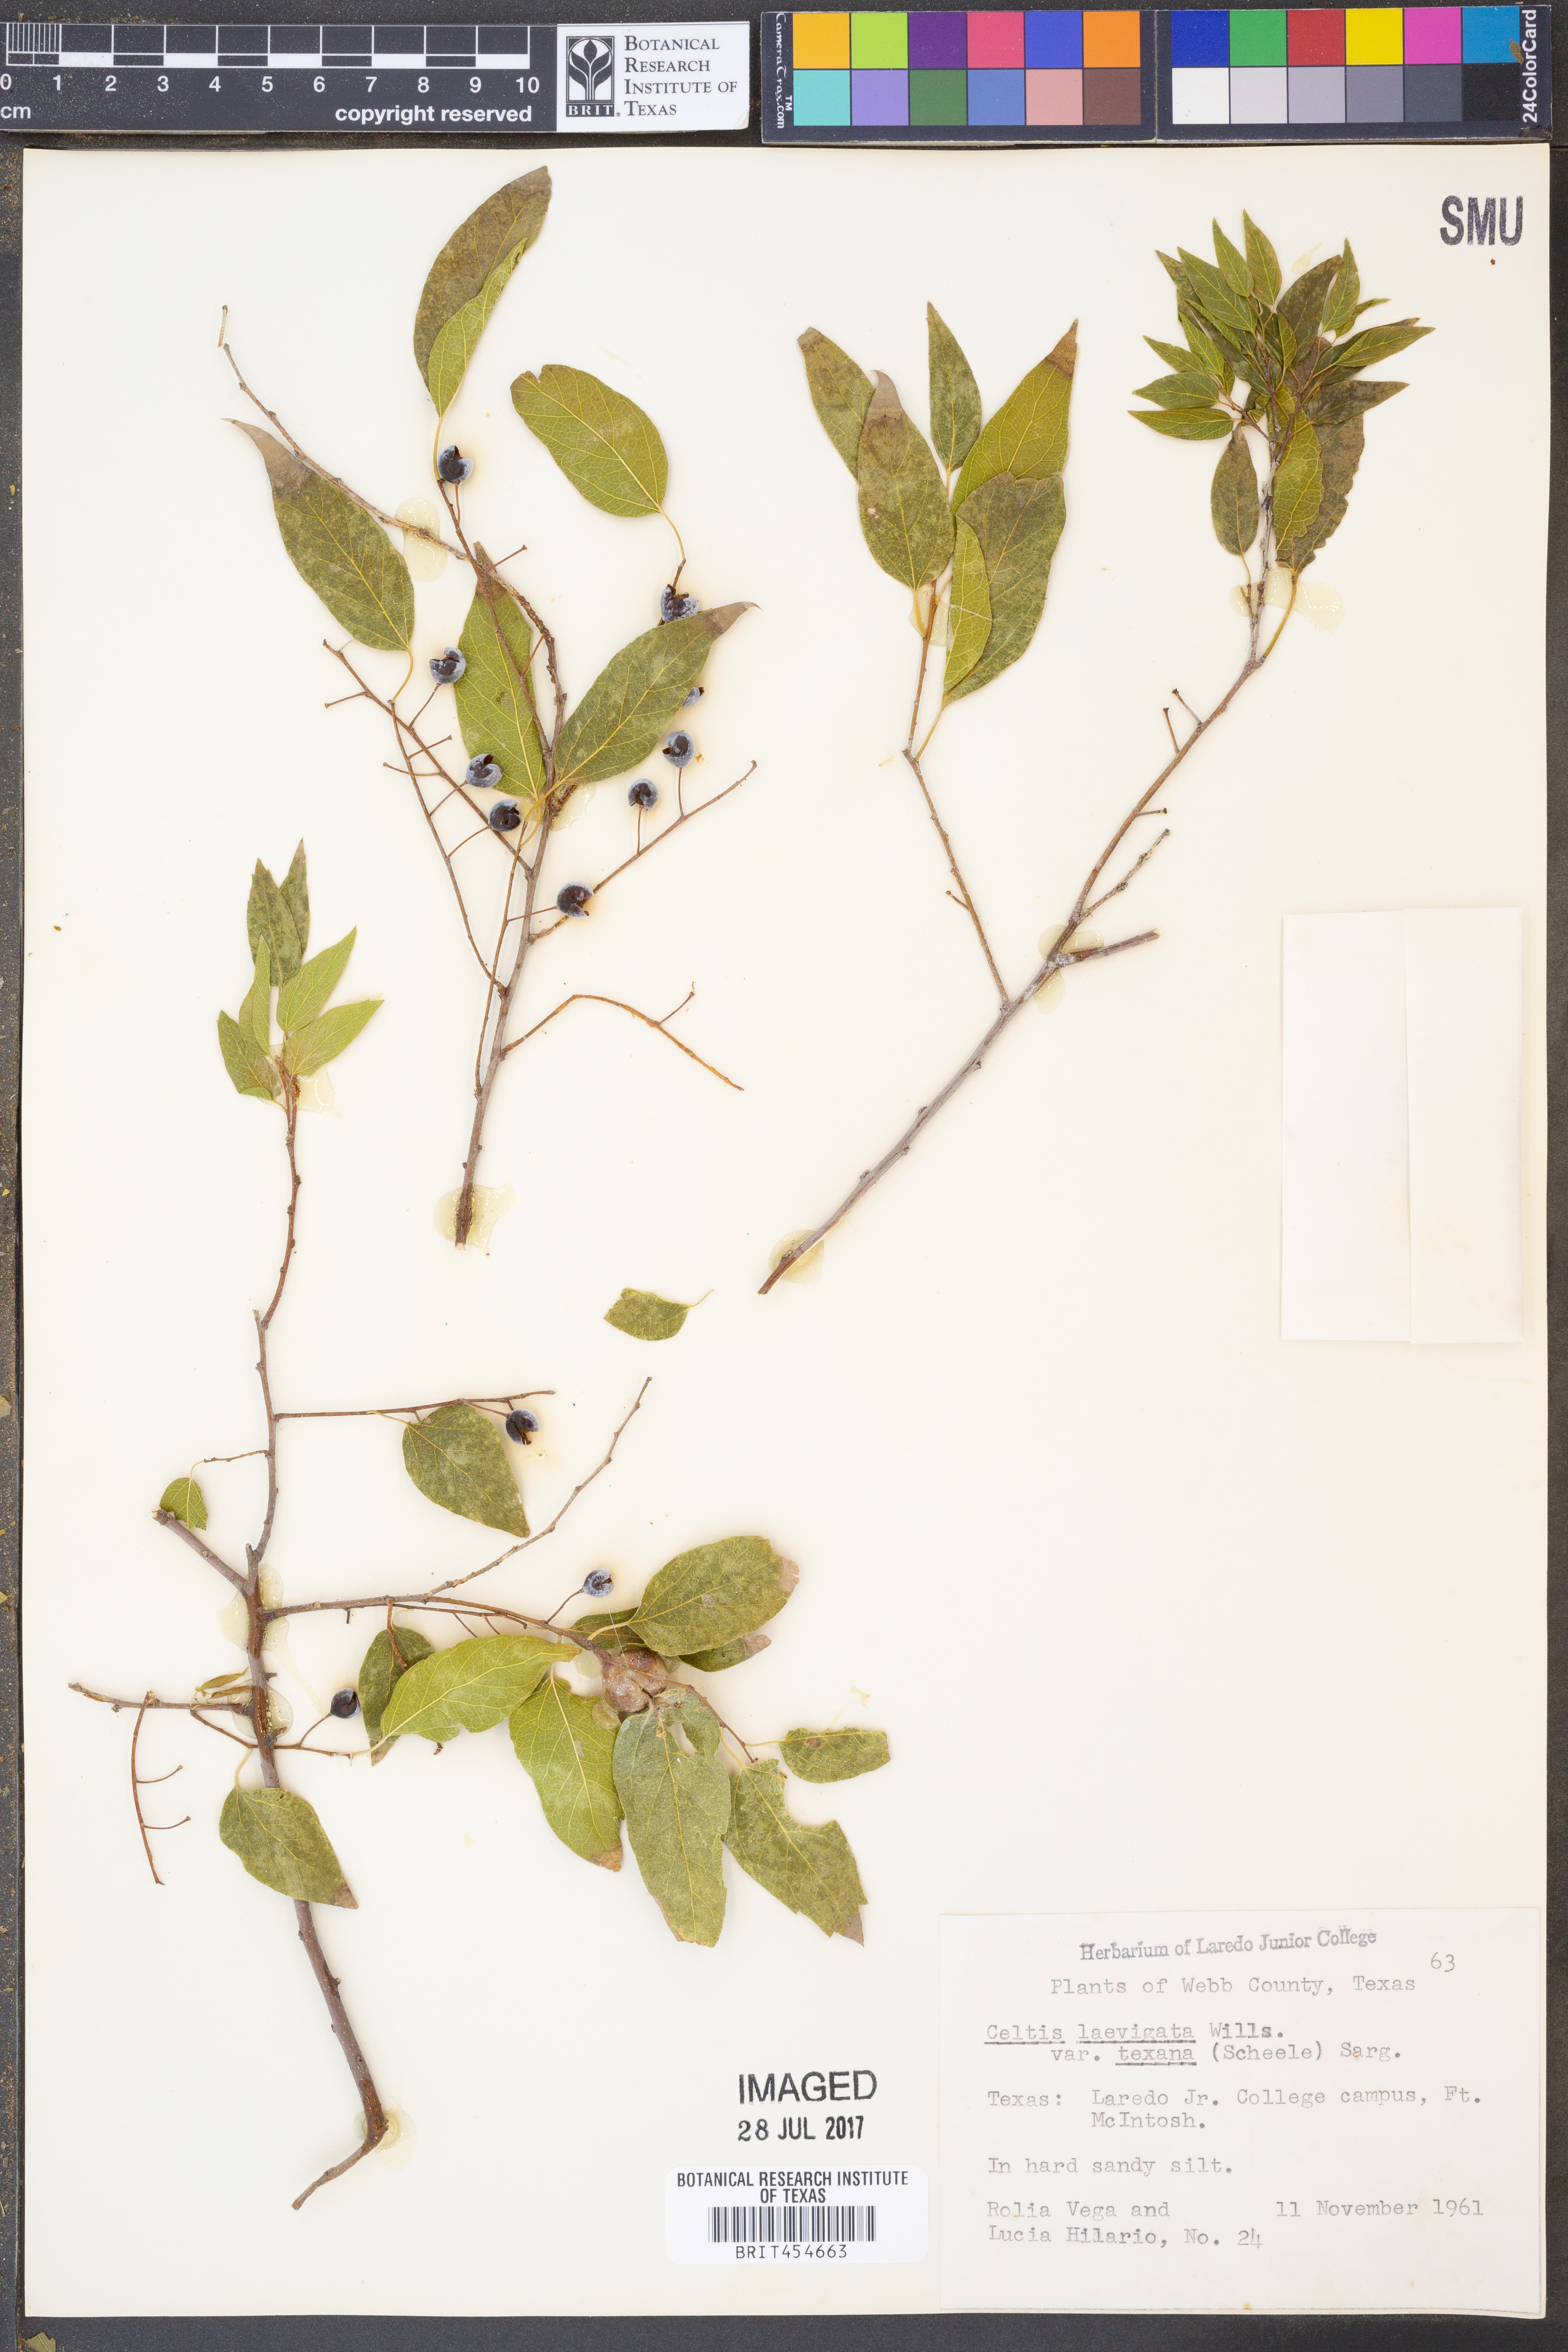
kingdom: Plantae
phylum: Tracheophyta
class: Magnoliopsida
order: Rosales
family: Cannabaceae
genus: Celtis
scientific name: Celtis laevigata
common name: Sugarberry
